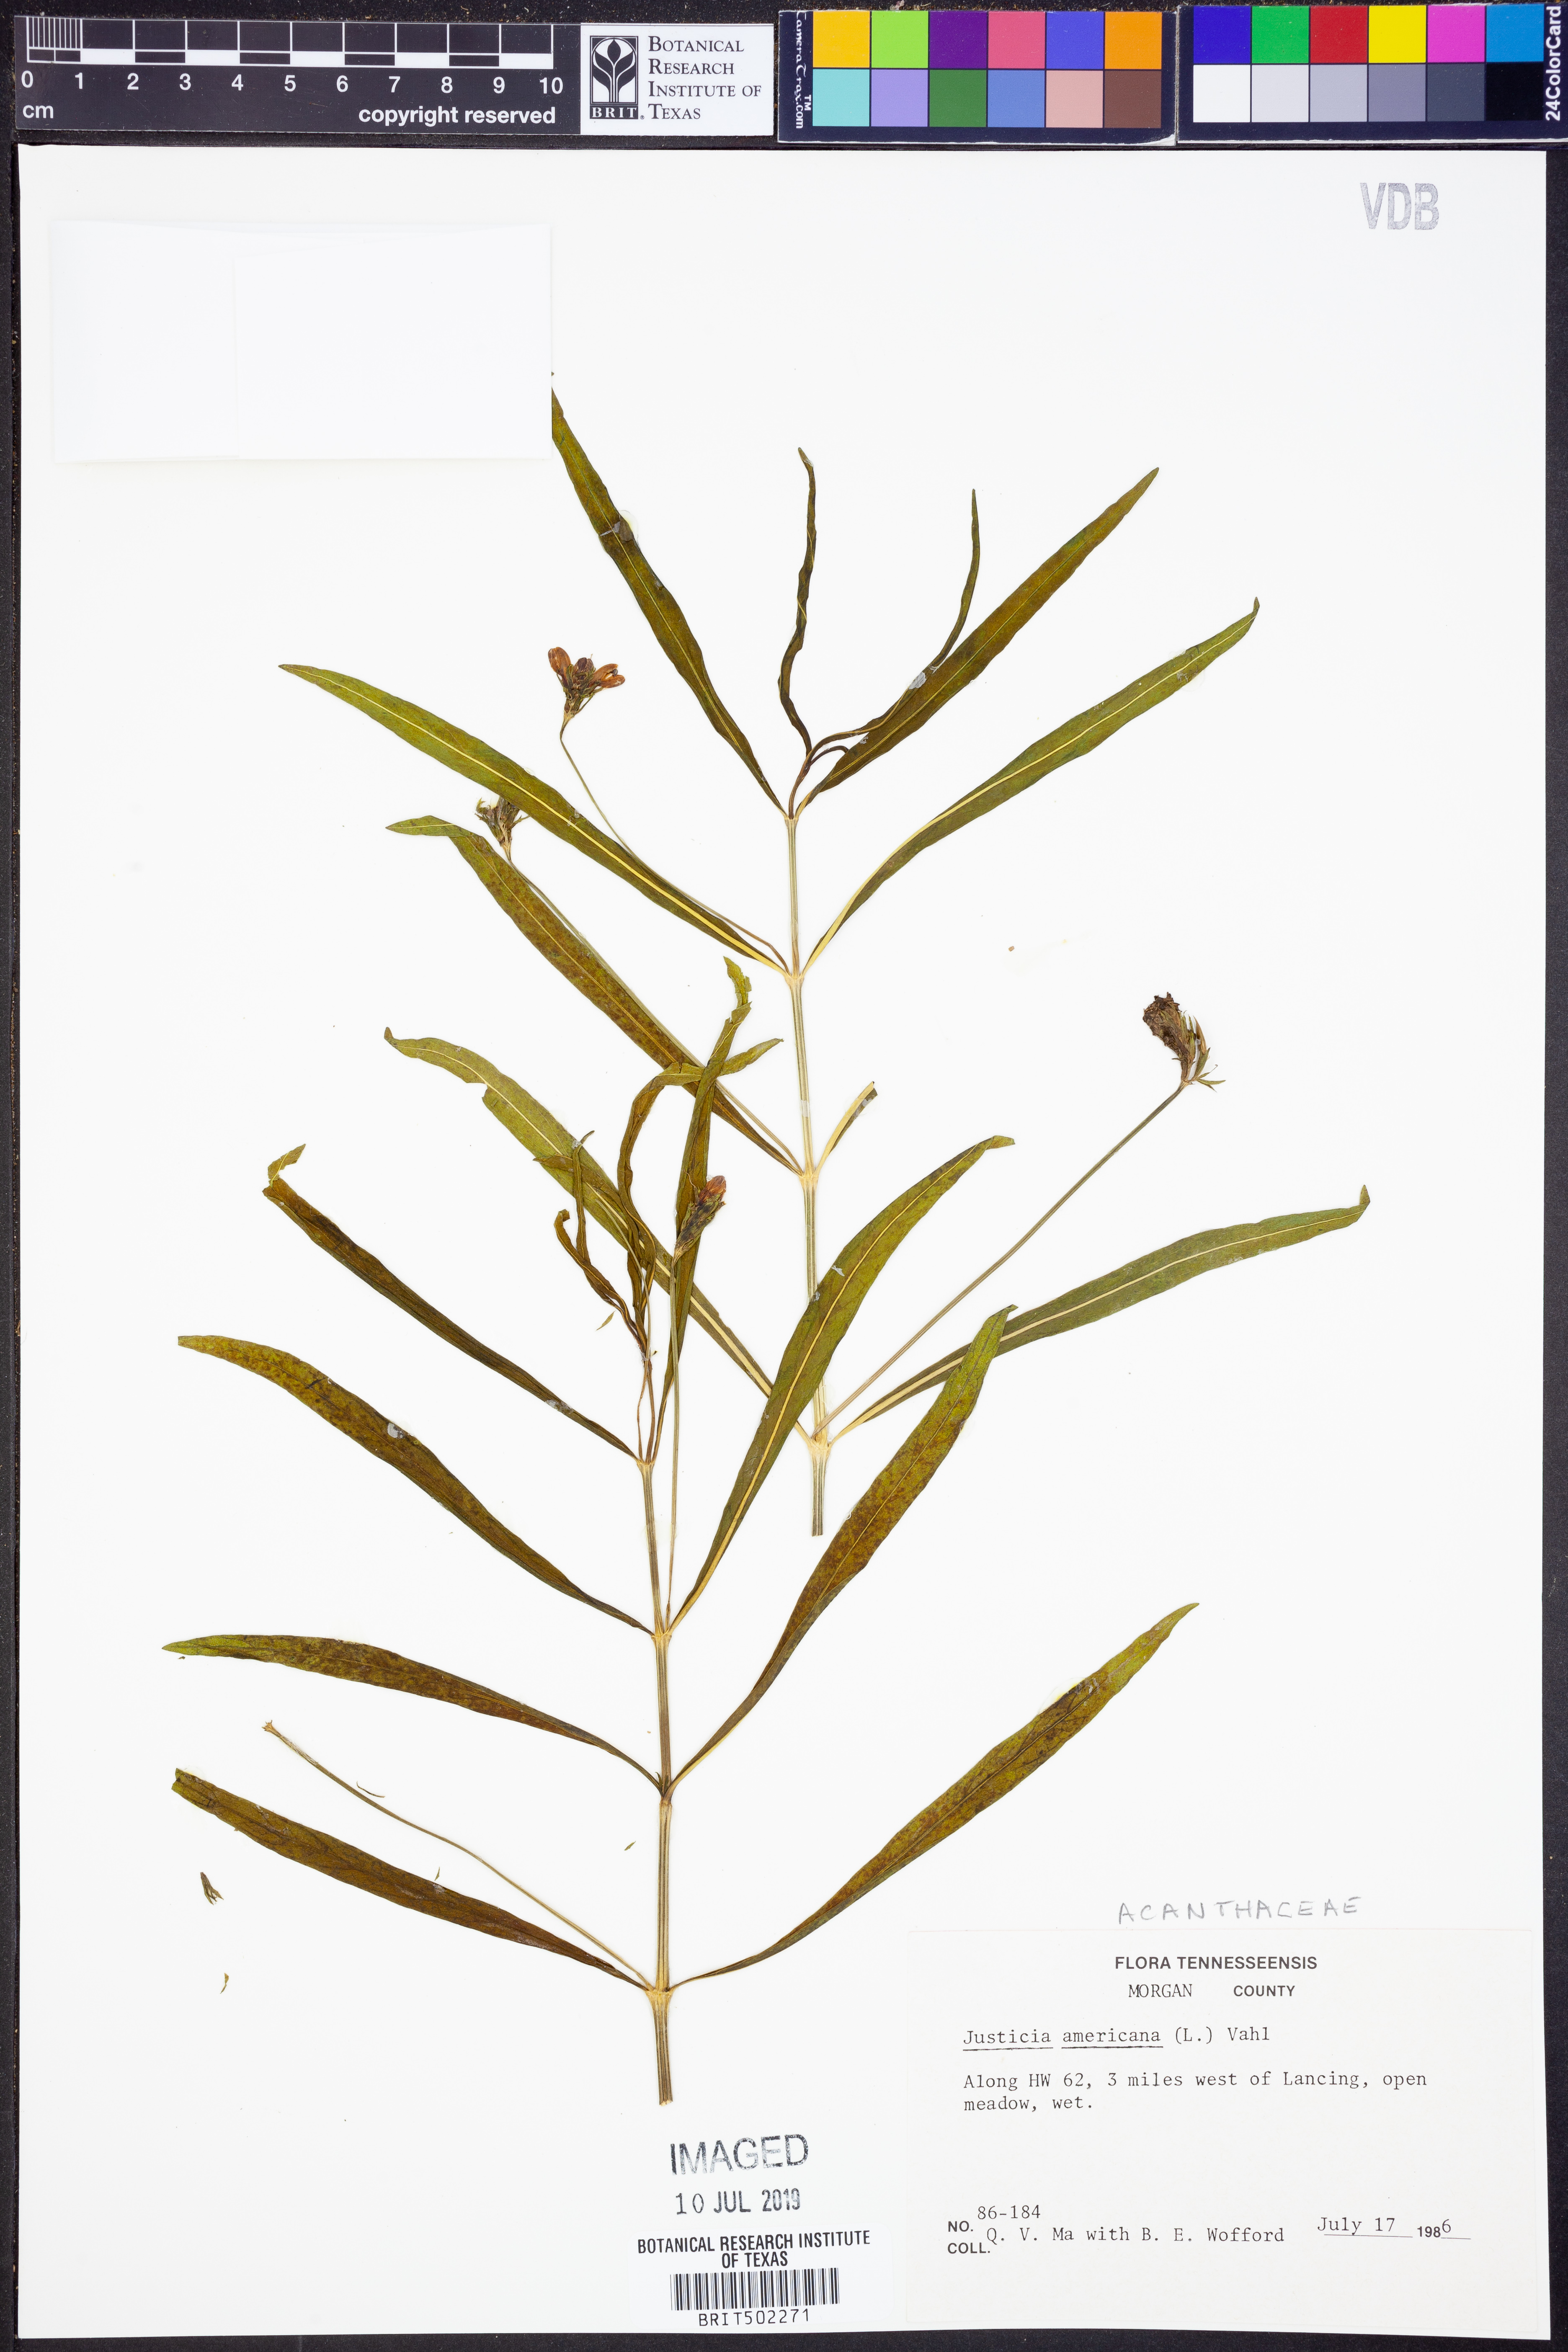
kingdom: Plantae
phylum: Tracheophyta
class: Magnoliopsida
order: Lamiales
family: Acanthaceae
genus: Dianthera
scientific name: Dianthera americana
